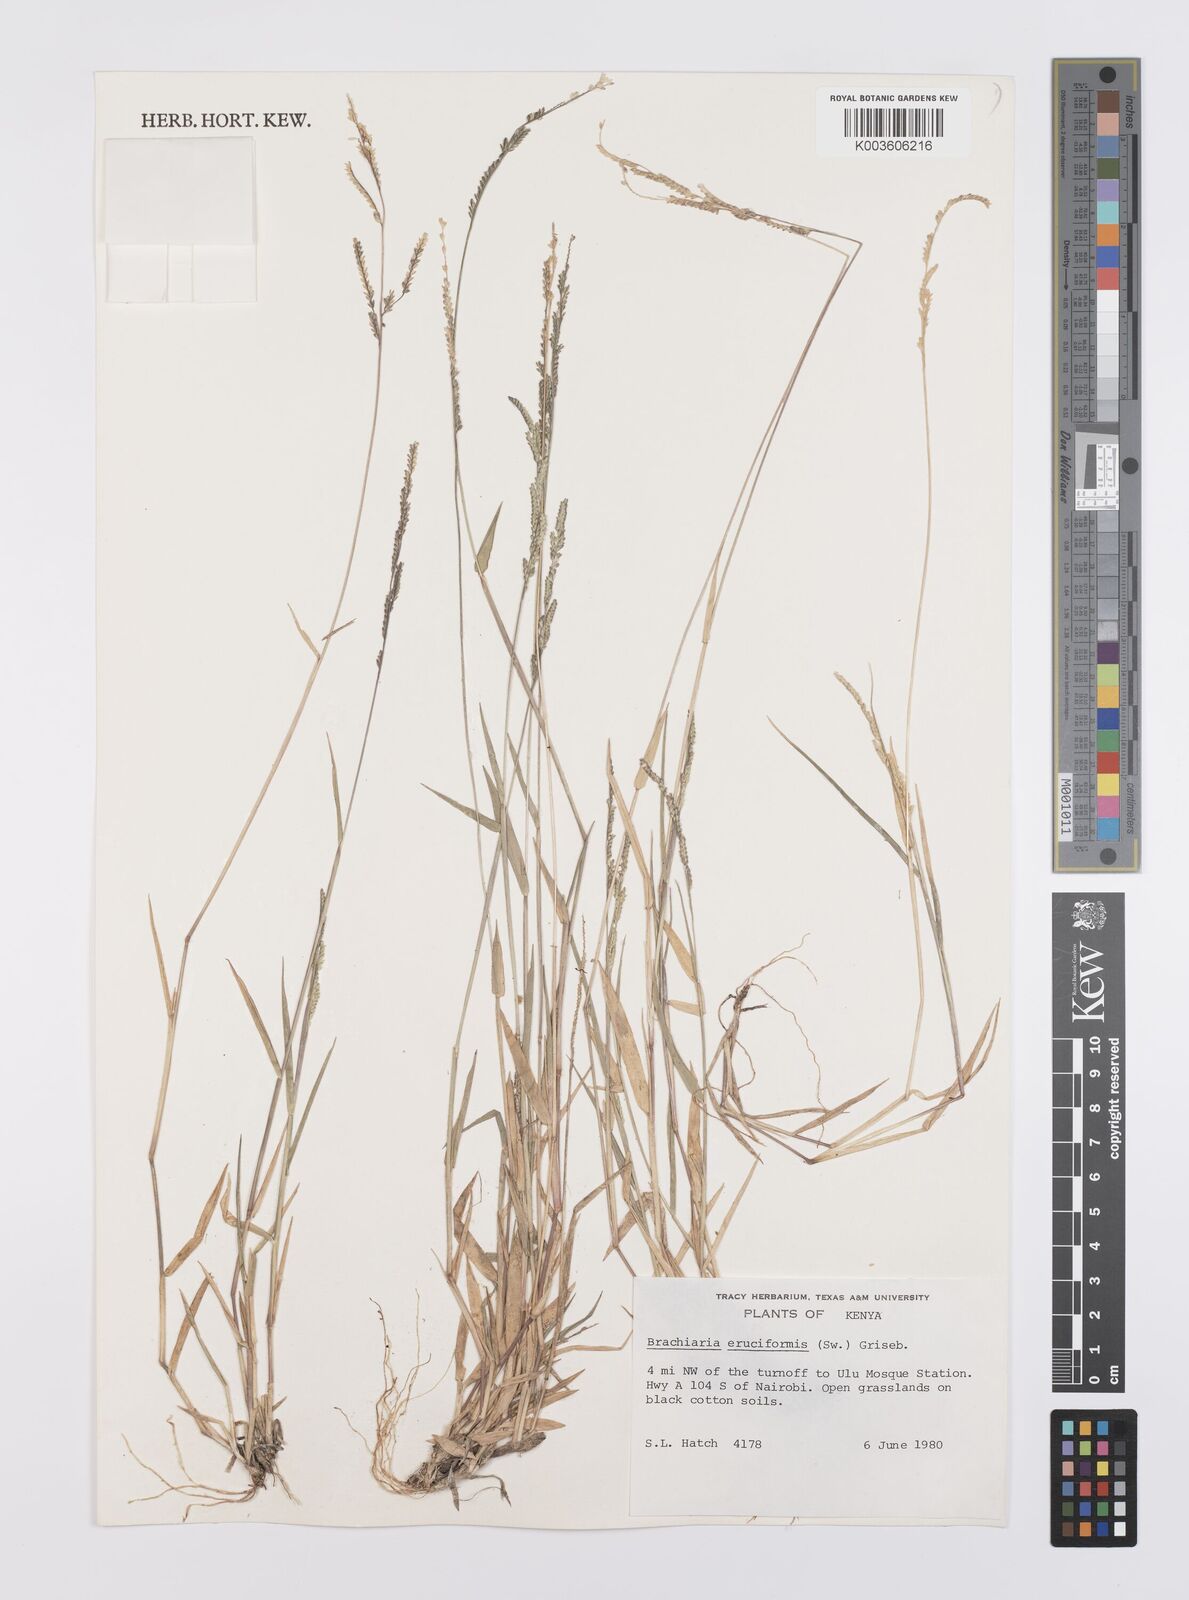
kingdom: Plantae
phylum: Tracheophyta
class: Liliopsida
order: Poales
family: Poaceae
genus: Moorochloa
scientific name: Moorochloa eruciformis
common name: Sweet signalgrass
